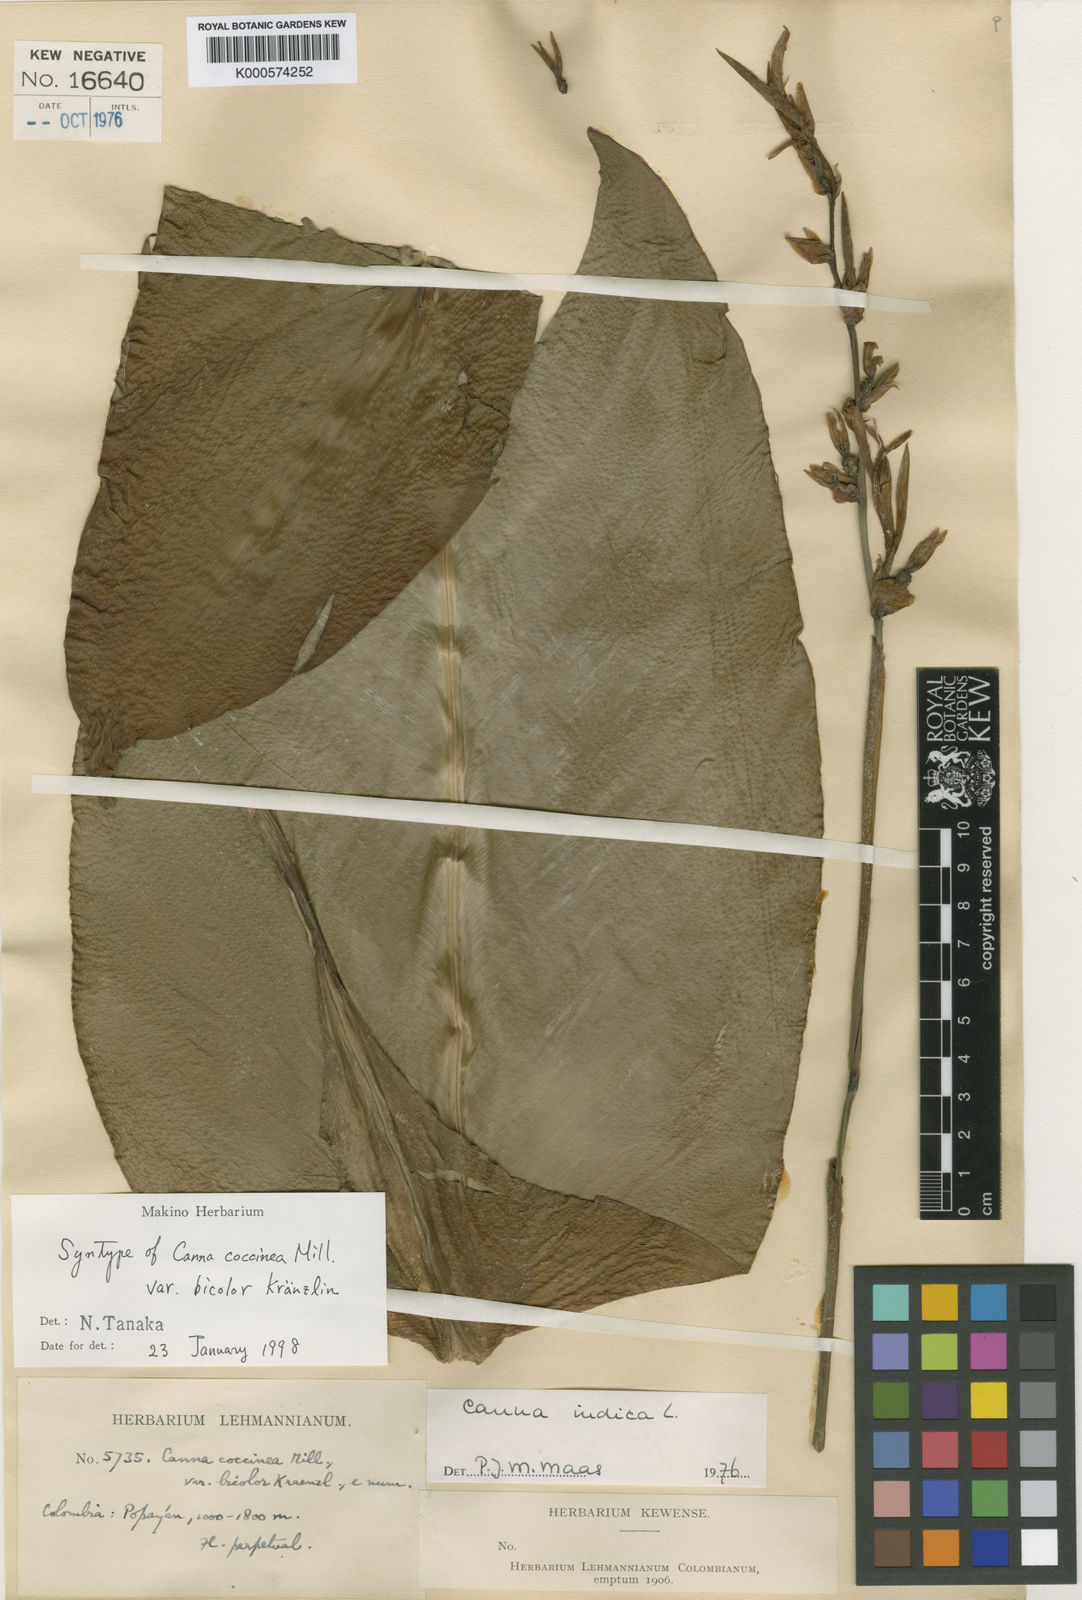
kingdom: Plantae
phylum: Tracheophyta
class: Liliopsida
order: Zingiberales
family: Cannaceae
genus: Canna
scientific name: Canna indica
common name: Indian shot
